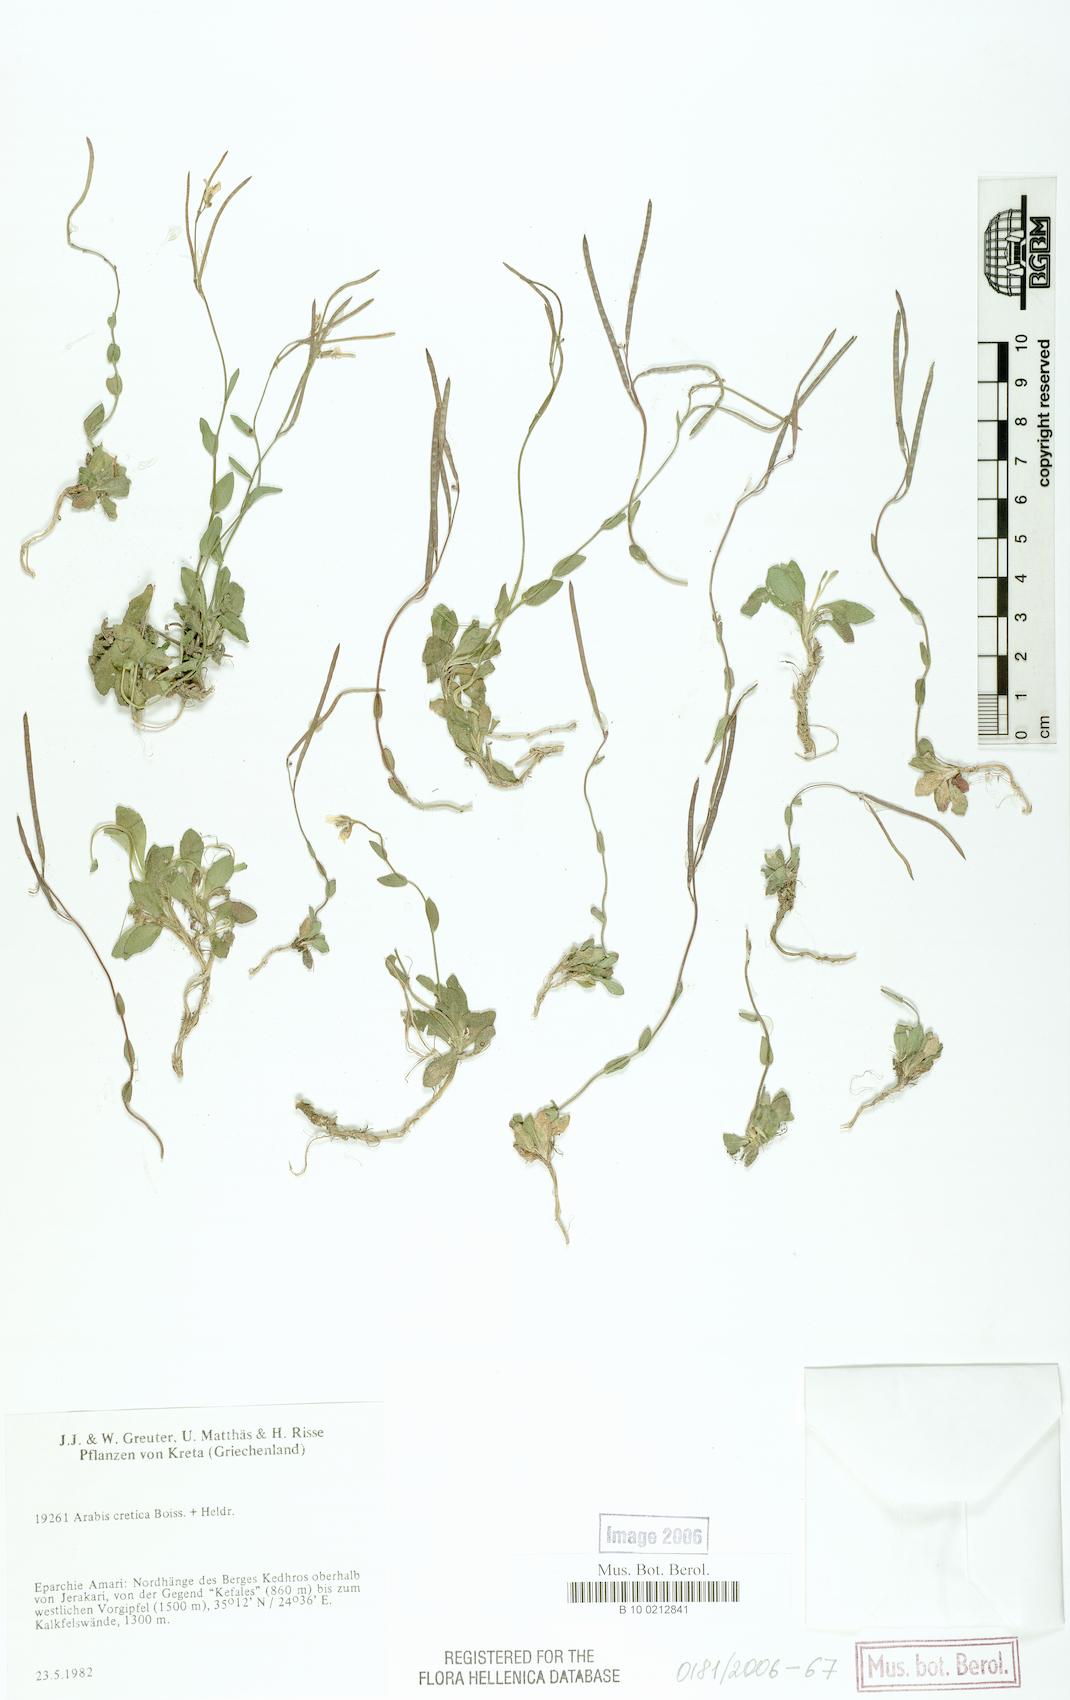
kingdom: Plantae
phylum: Tracheophyta
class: Magnoliopsida
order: Brassicales
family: Brassicaceae
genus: Arabis
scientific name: Arabis cretica
